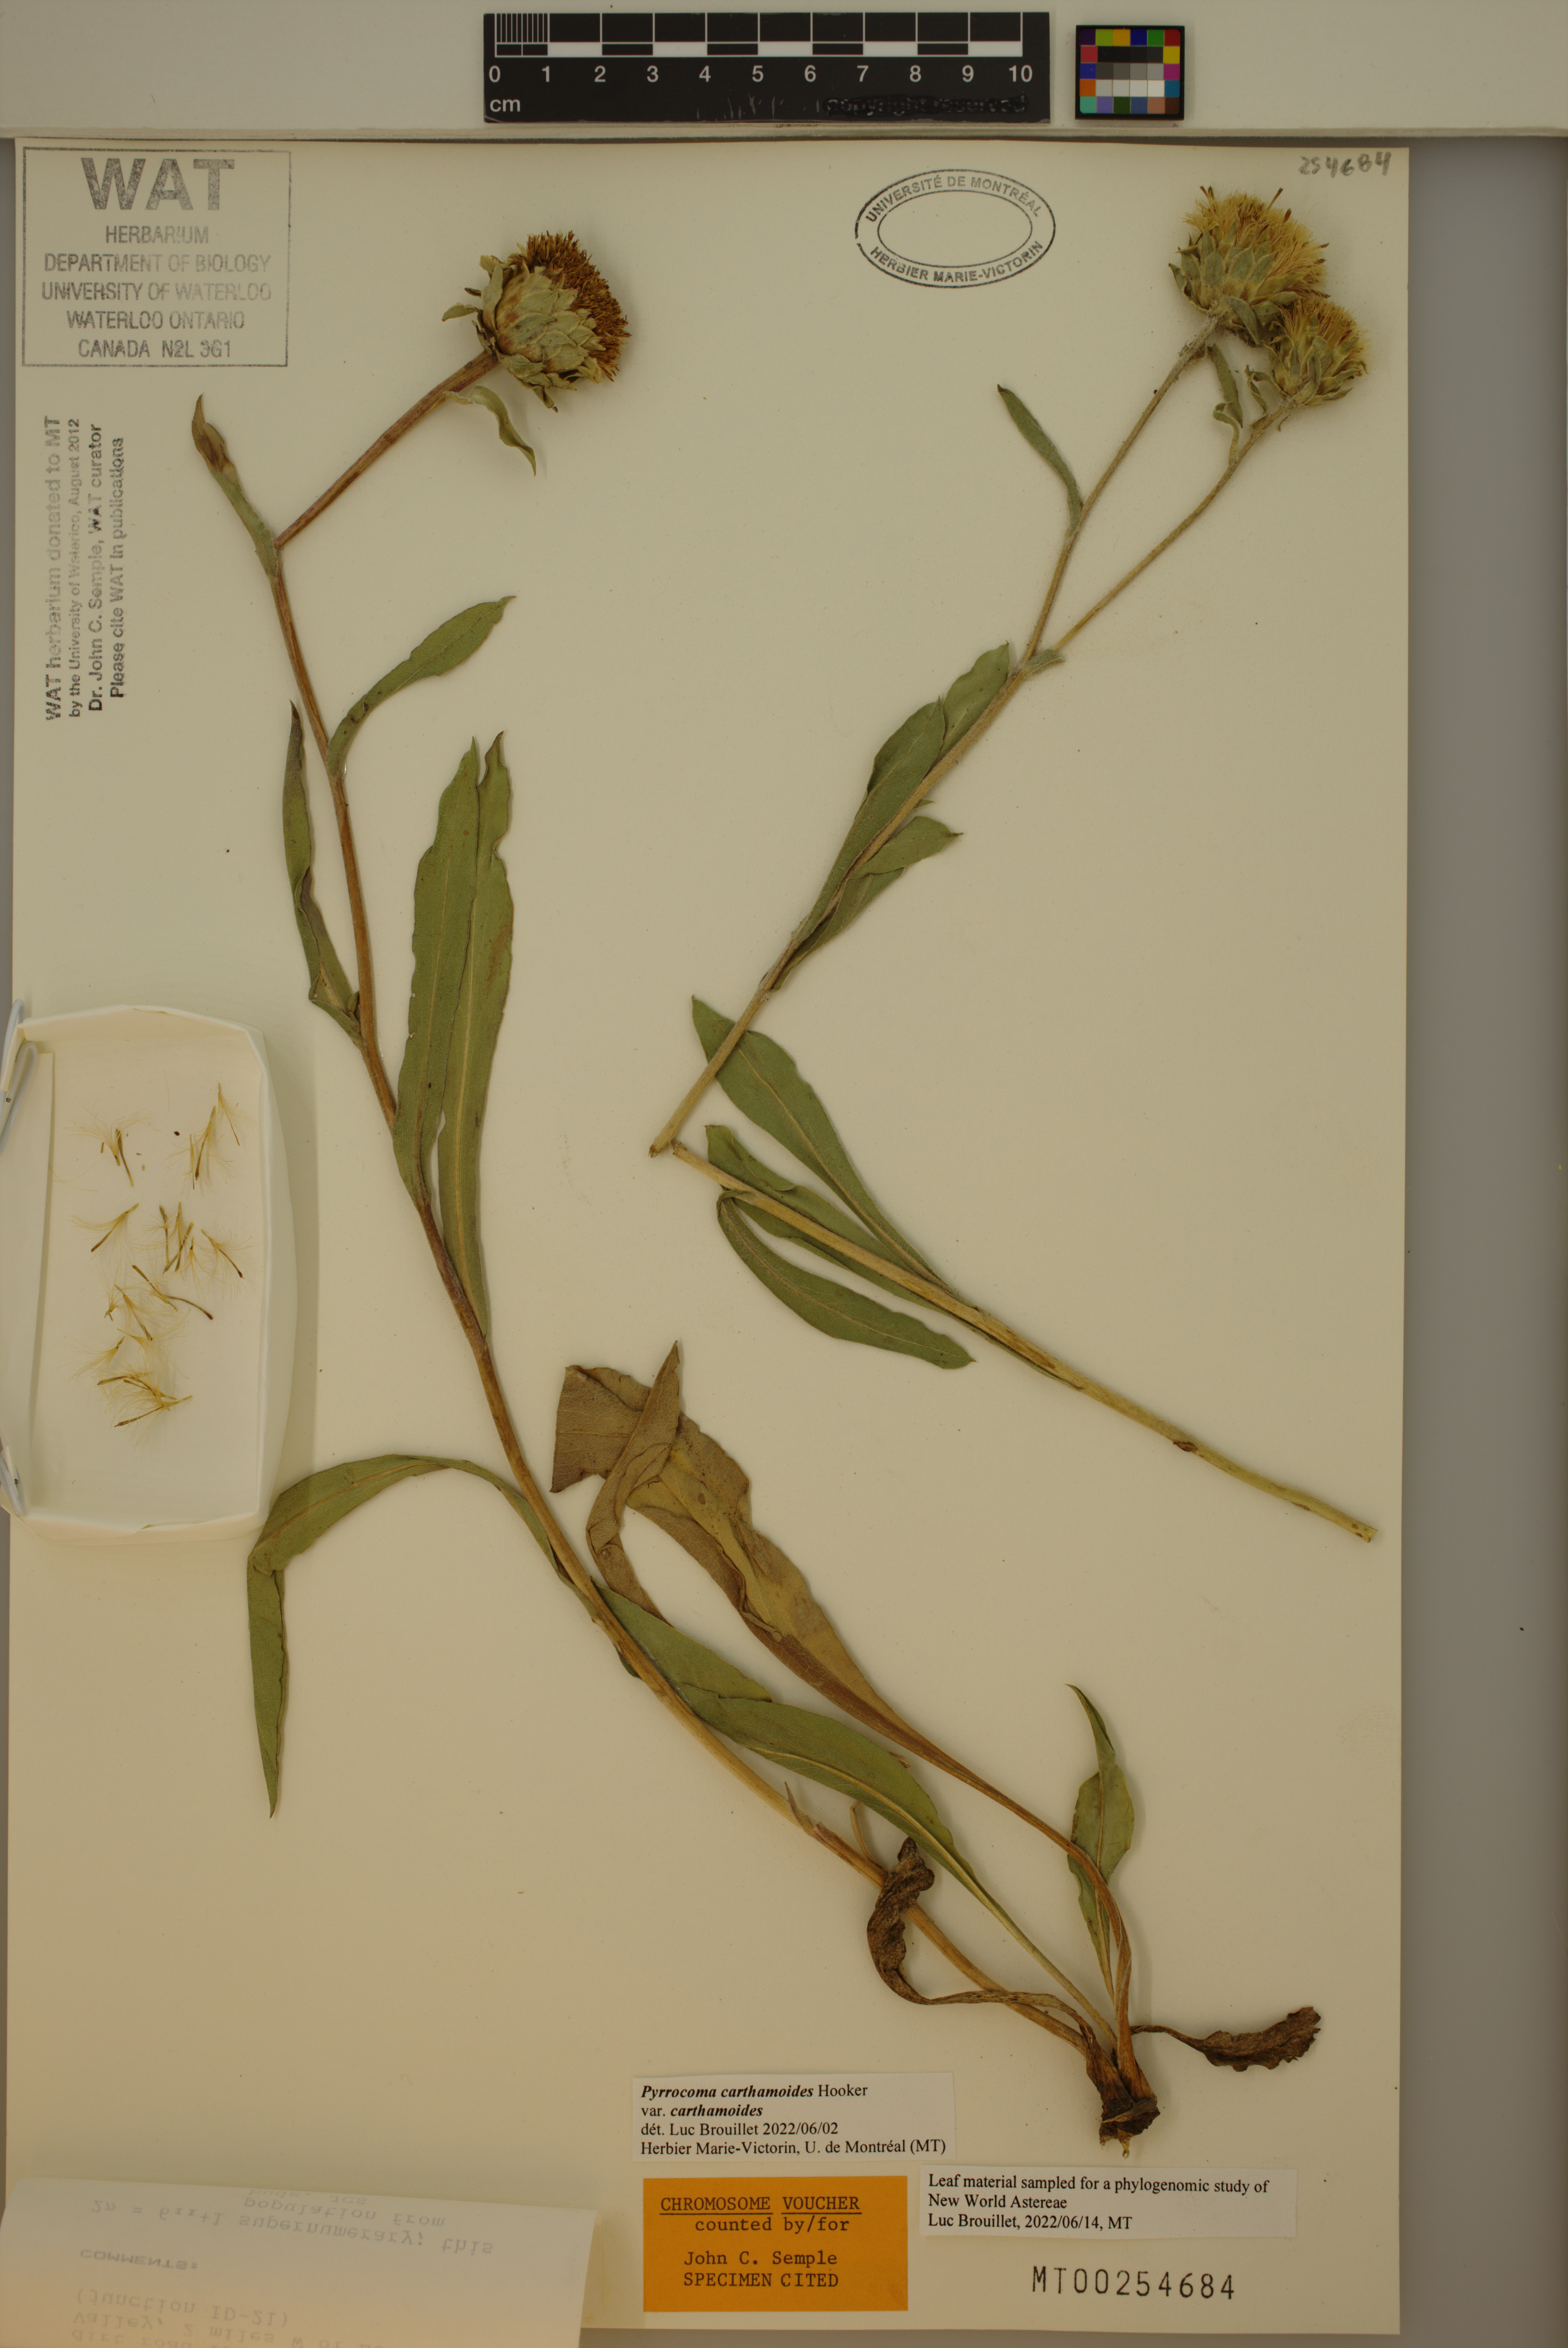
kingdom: Plantae
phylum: Tracheophyta
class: Magnoliopsida
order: Asterales
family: Asteraceae
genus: Pyrrocoma
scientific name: Pyrrocoma carthamoides
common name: Large-flower goldenweed
